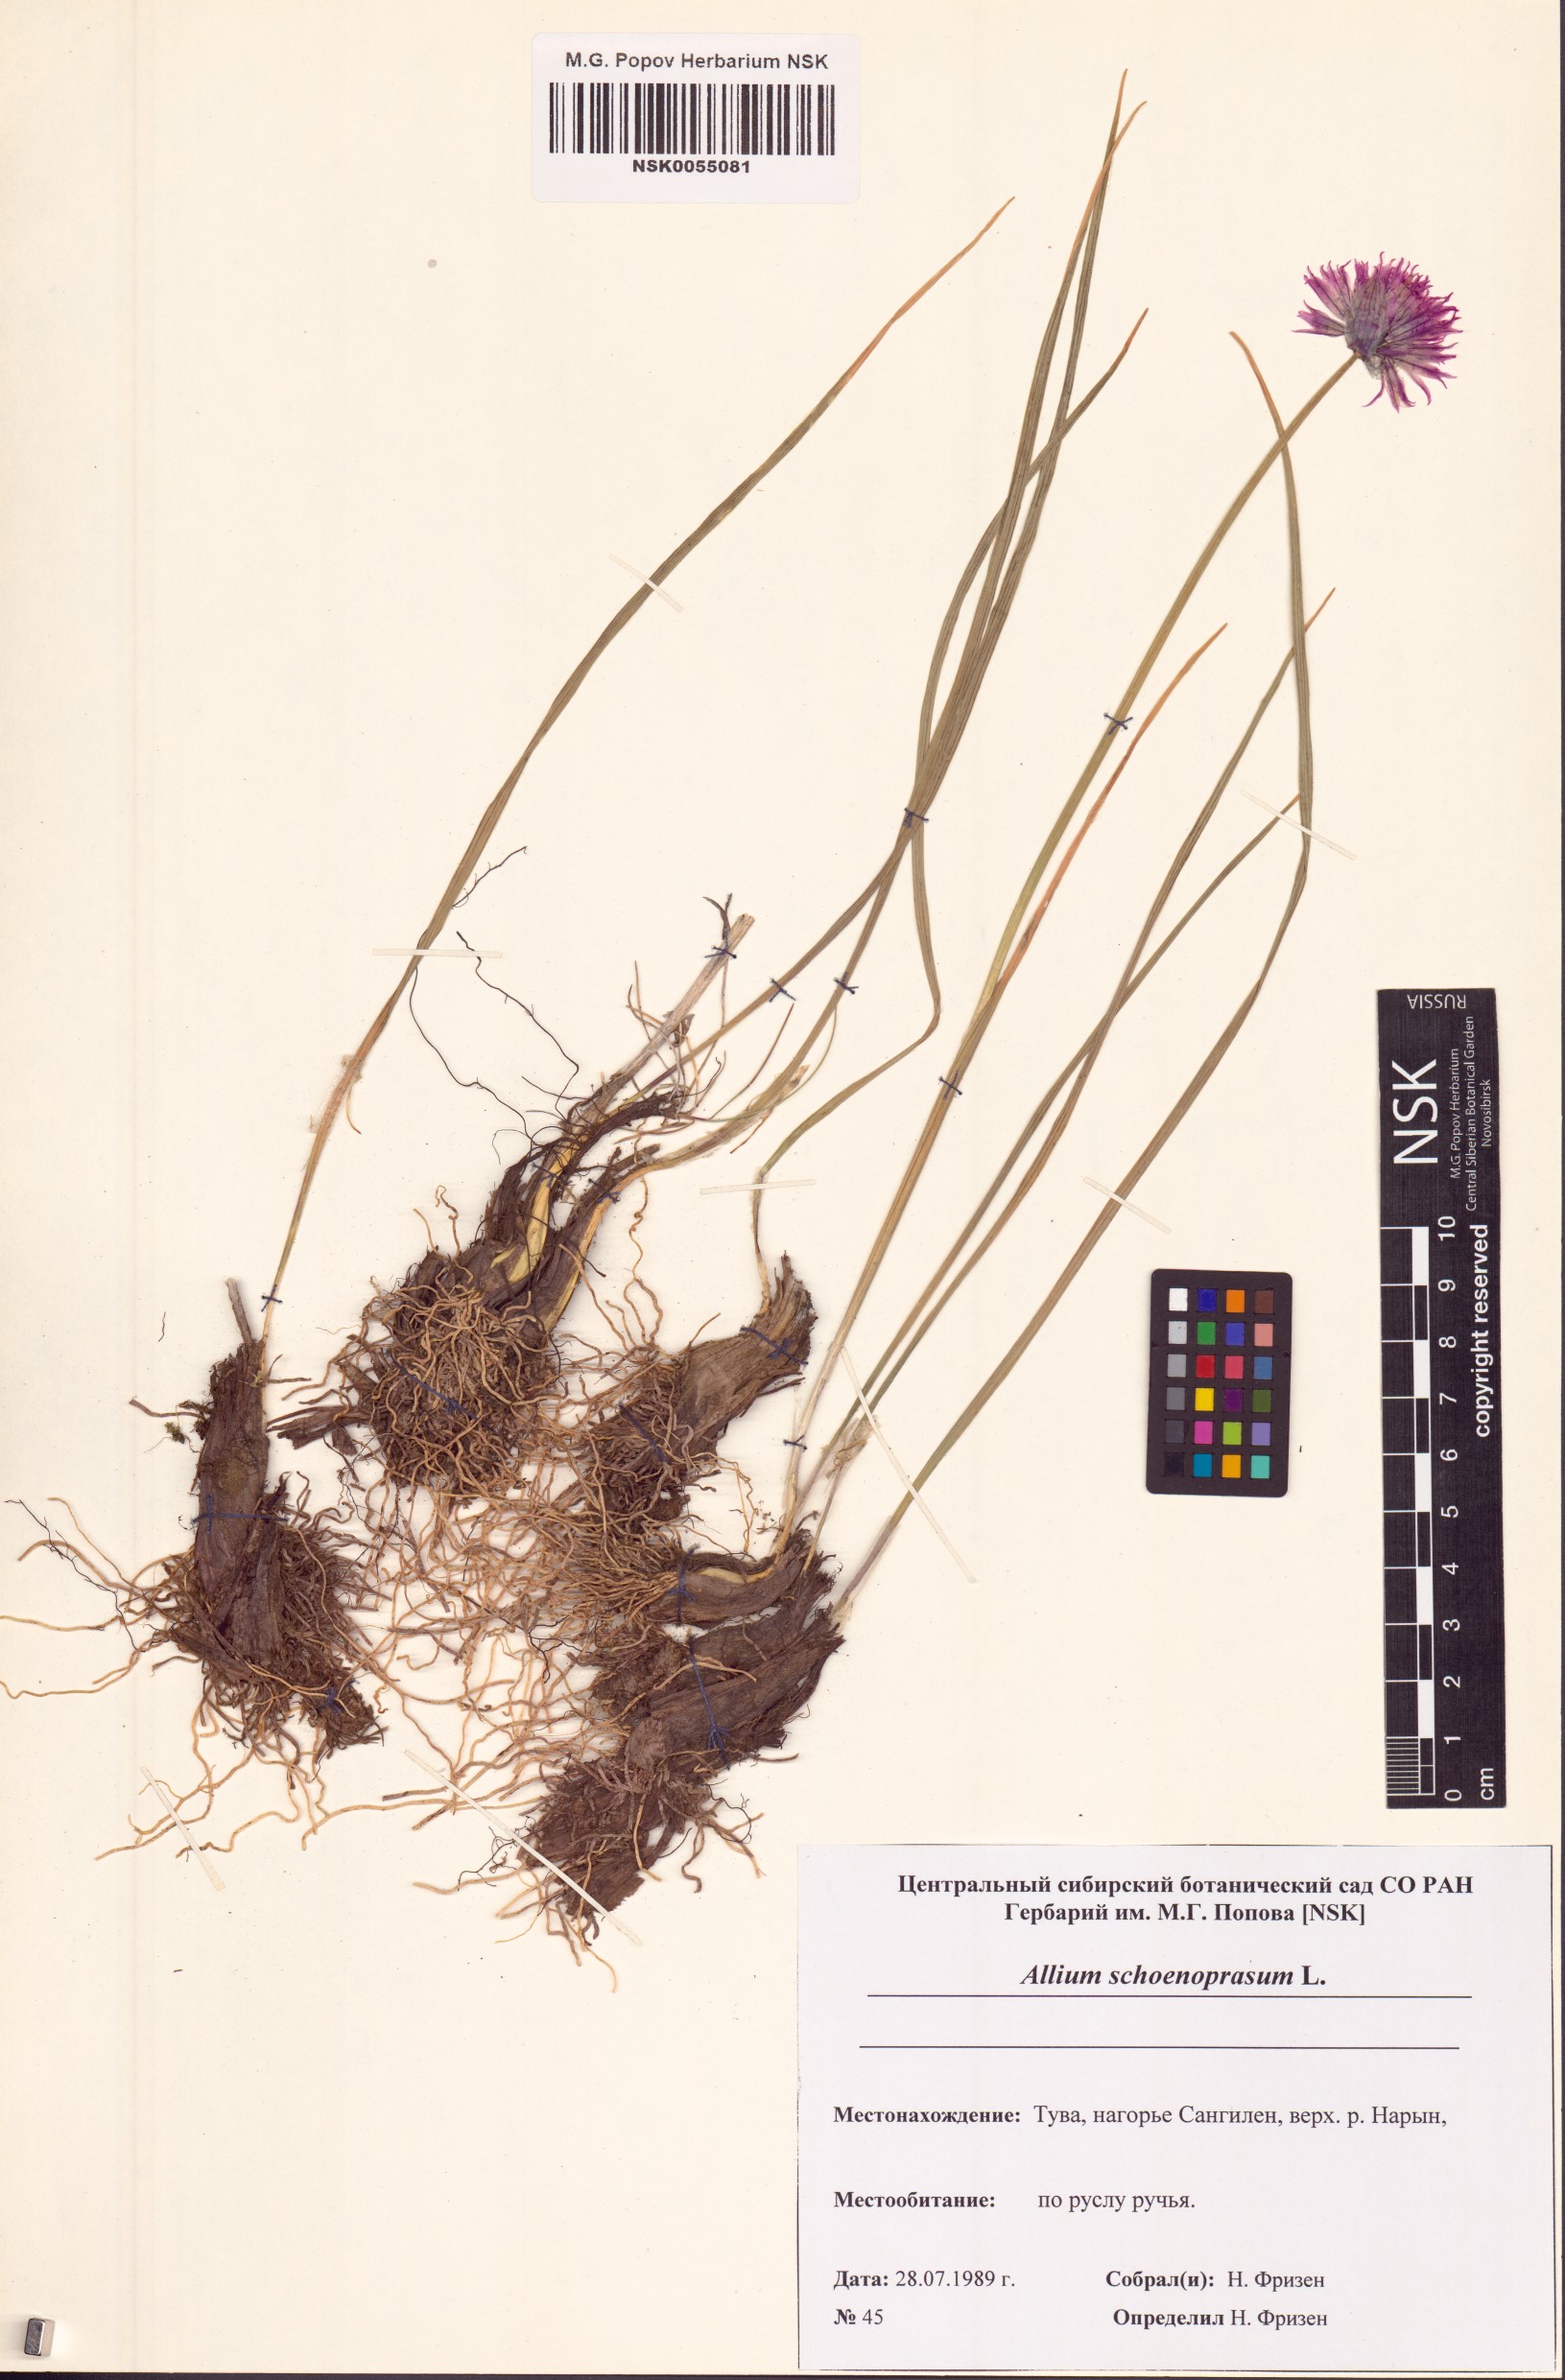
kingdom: Plantae
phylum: Tracheophyta
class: Liliopsida
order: Asparagales
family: Amaryllidaceae
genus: Allium
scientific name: Allium schoenoprasum
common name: Chives
